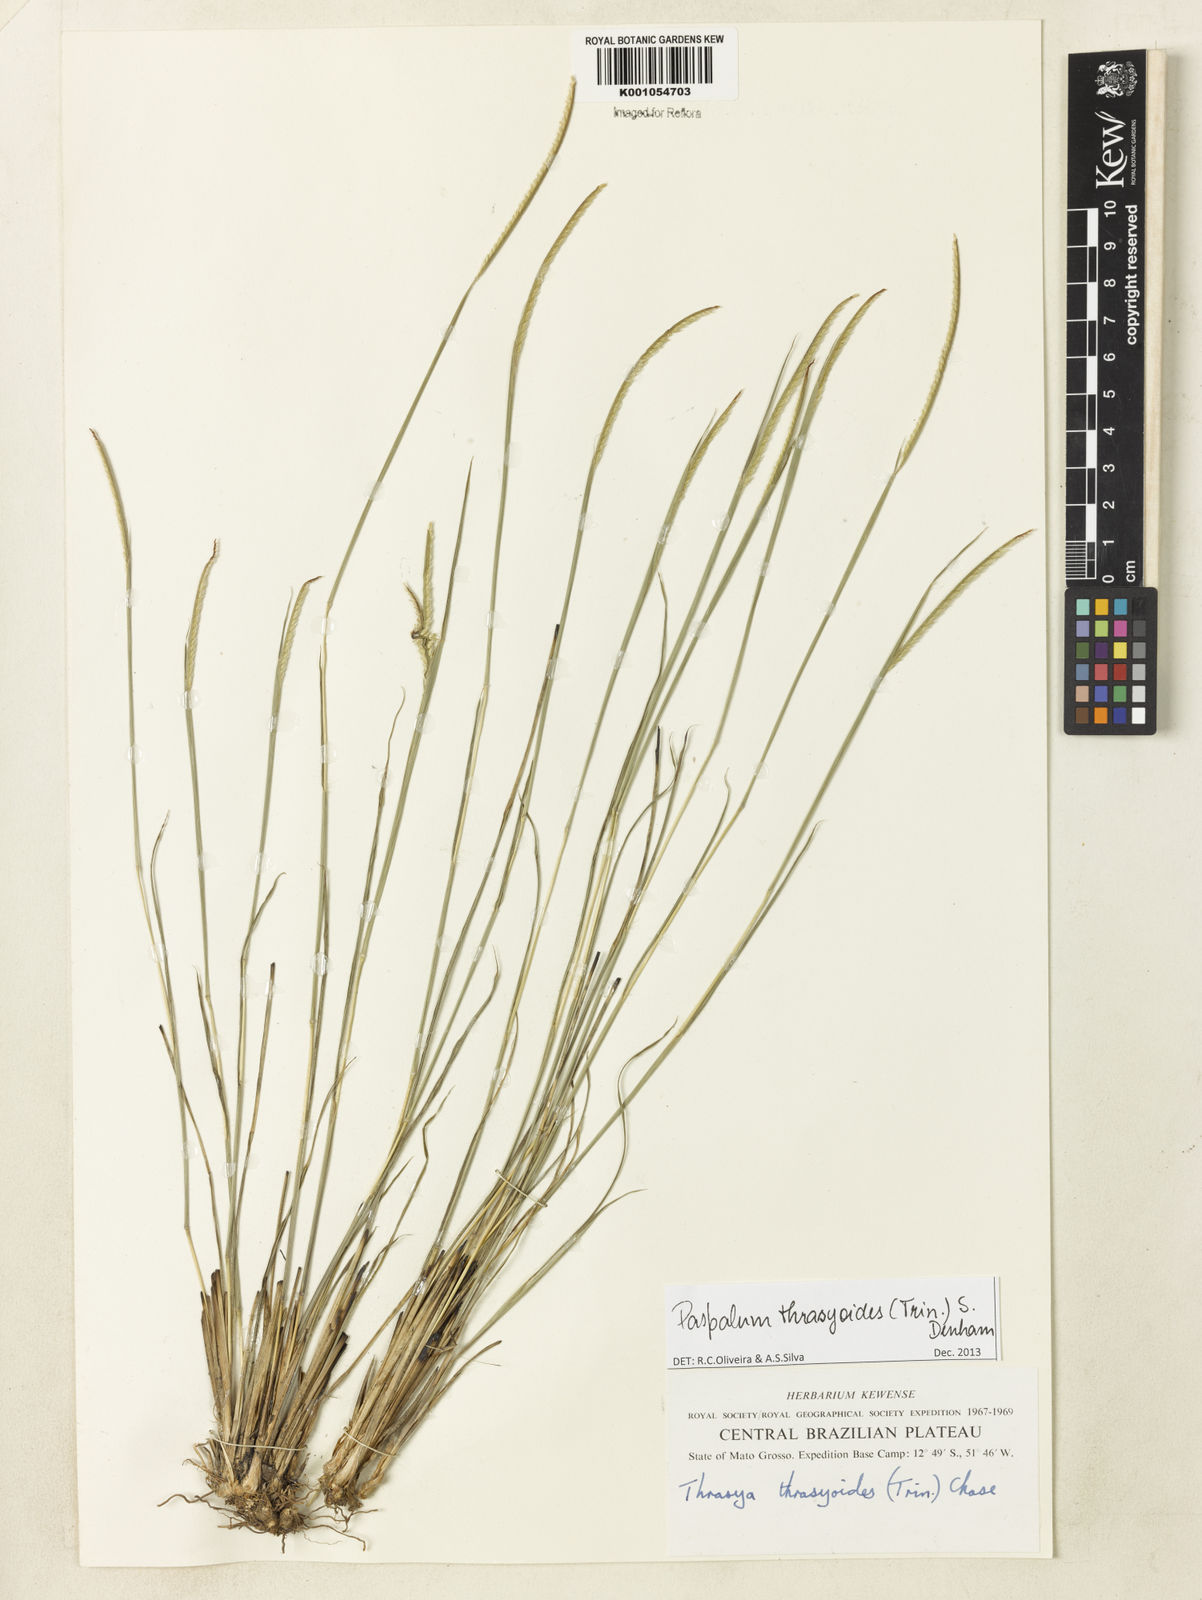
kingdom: Plantae
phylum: Tracheophyta
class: Liliopsida
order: Poales
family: Poaceae
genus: Paspalum
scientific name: Paspalum thrasyoides
